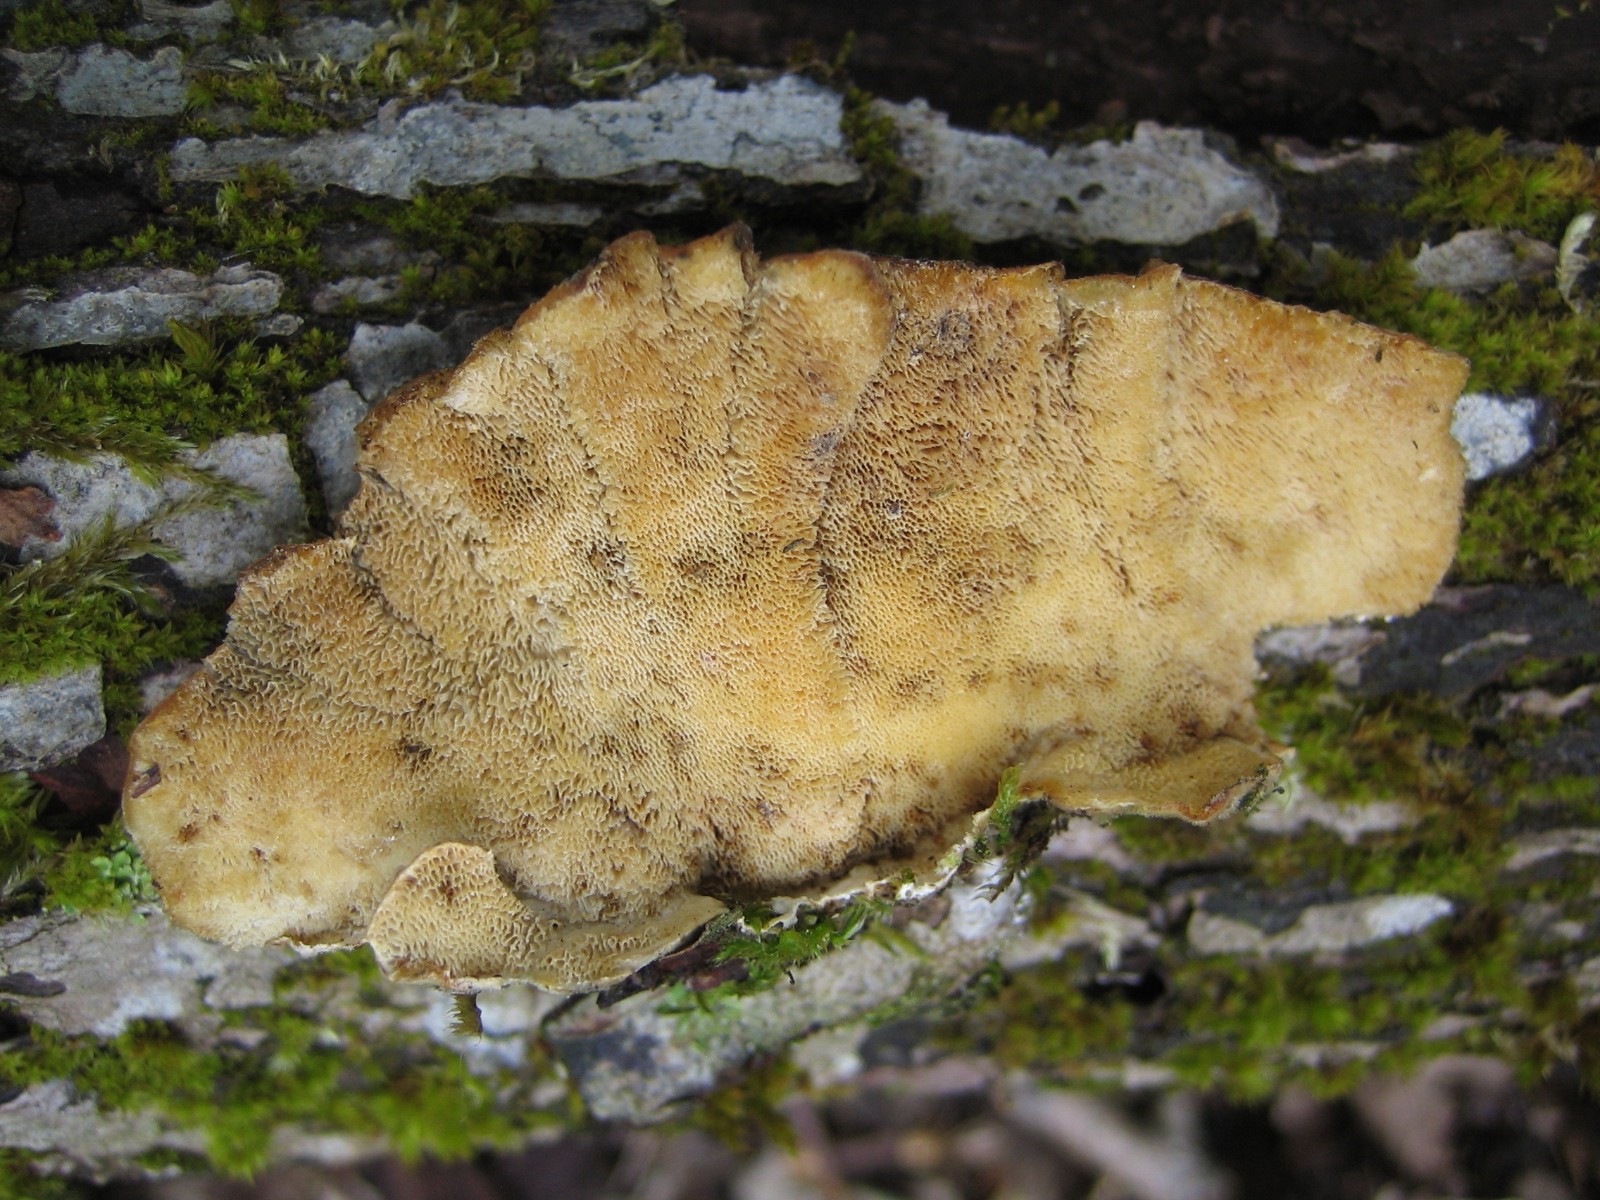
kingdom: Fungi
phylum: Basidiomycota
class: Agaricomycetes
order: Polyporales
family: Polyporaceae
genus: Trametes
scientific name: Trametes versicolor
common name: broget læderporesvamp
